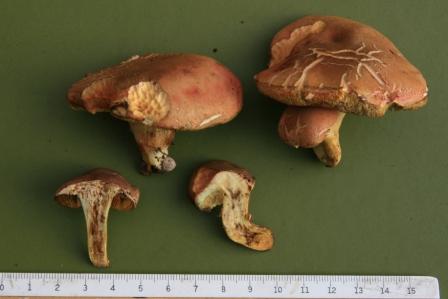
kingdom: Fungi
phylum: Basidiomycota
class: Agaricomycetes
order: Boletales
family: Boletaceae
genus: Hortiboletus
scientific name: Hortiboletus rubellus
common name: blodrød rørhat
